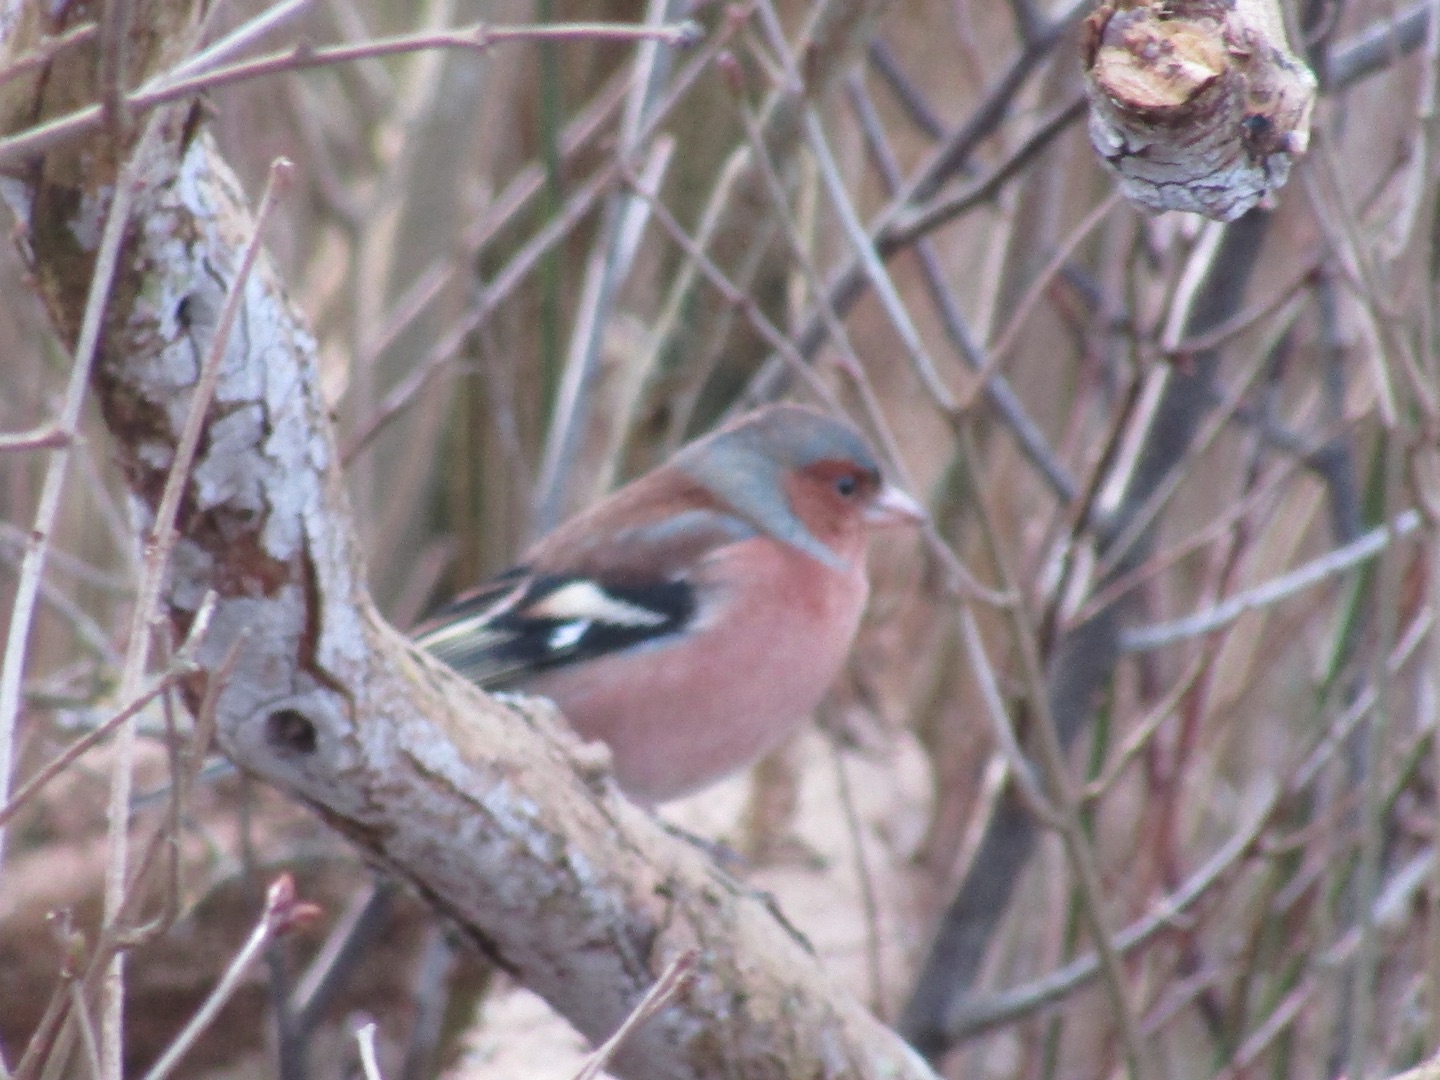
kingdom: Animalia
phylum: Chordata
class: Aves
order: Passeriformes
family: Fringillidae
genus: Fringilla
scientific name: Fringilla coelebs
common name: Bogfinke
